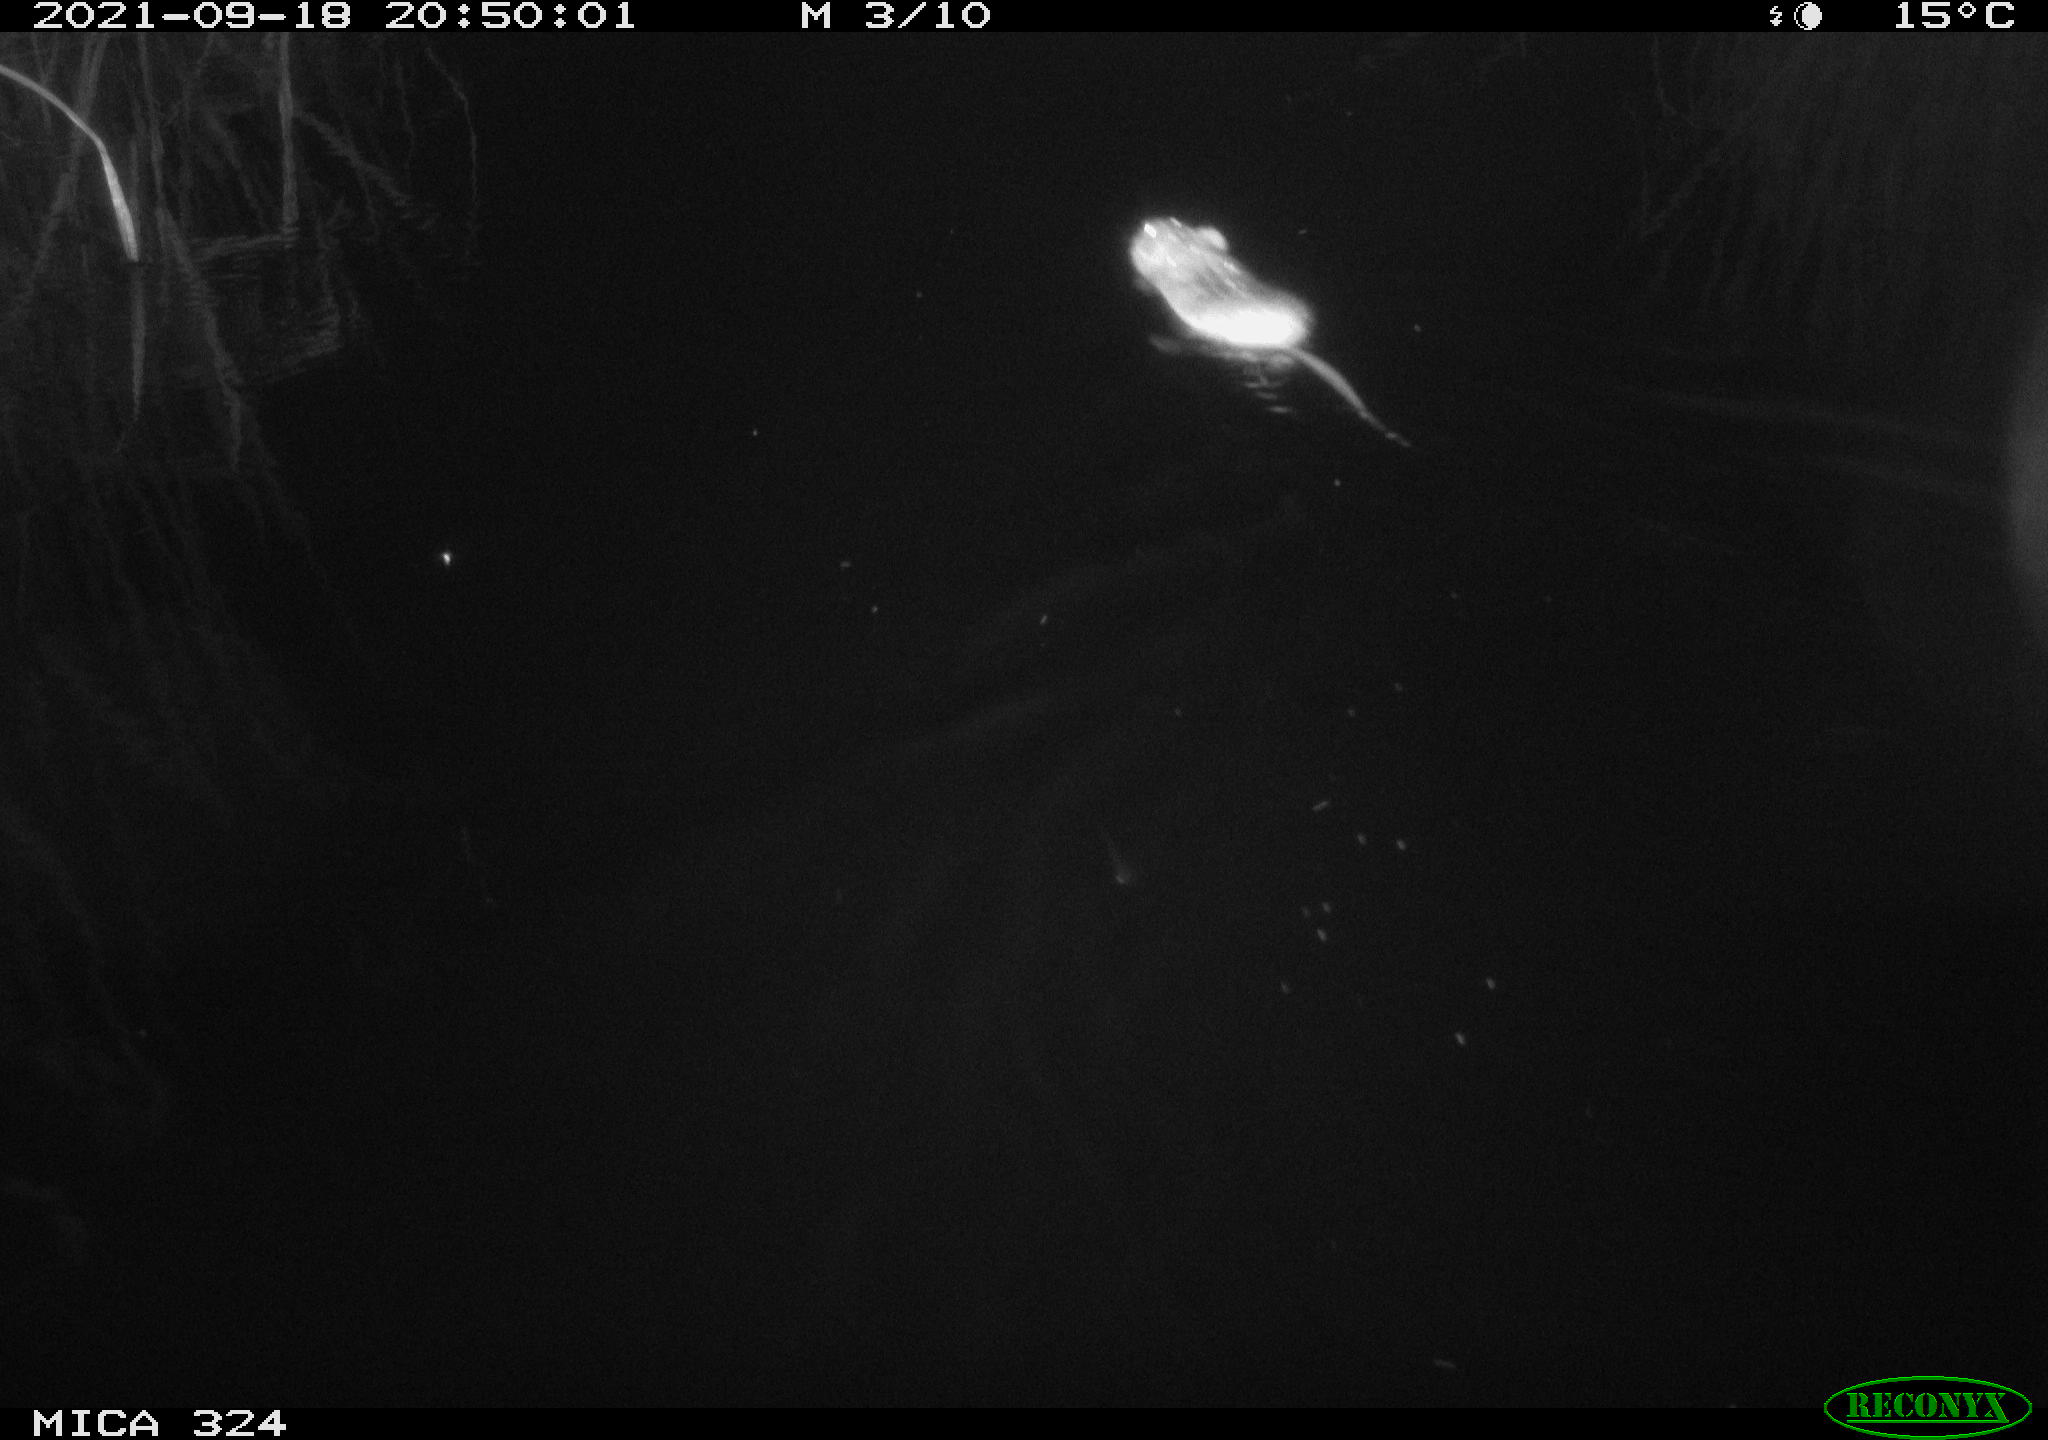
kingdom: Animalia
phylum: Chordata
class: Mammalia
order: Rodentia
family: Cricetidae
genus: Ondatra
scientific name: Ondatra zibethicus
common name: Muskrat
